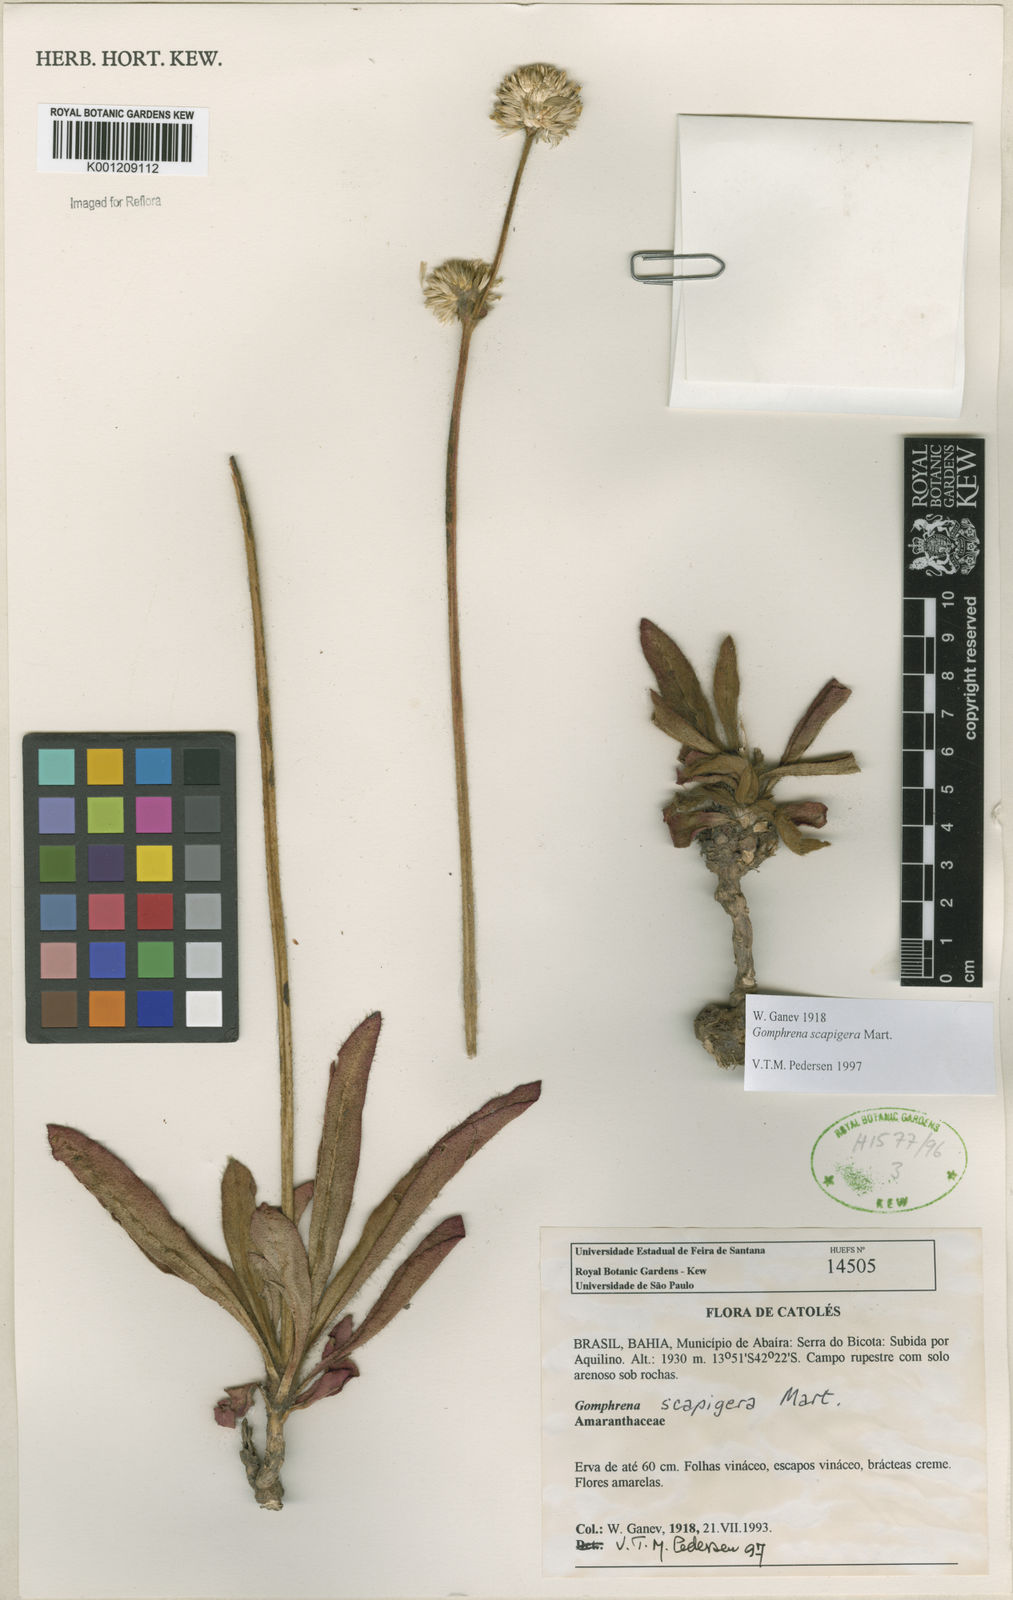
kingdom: Plantae
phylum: Tracheophyta
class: Magnoliopsida
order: Caryophyllales
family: Amaranthaceae
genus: Gomphrena
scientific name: Gomphrena scapigera
